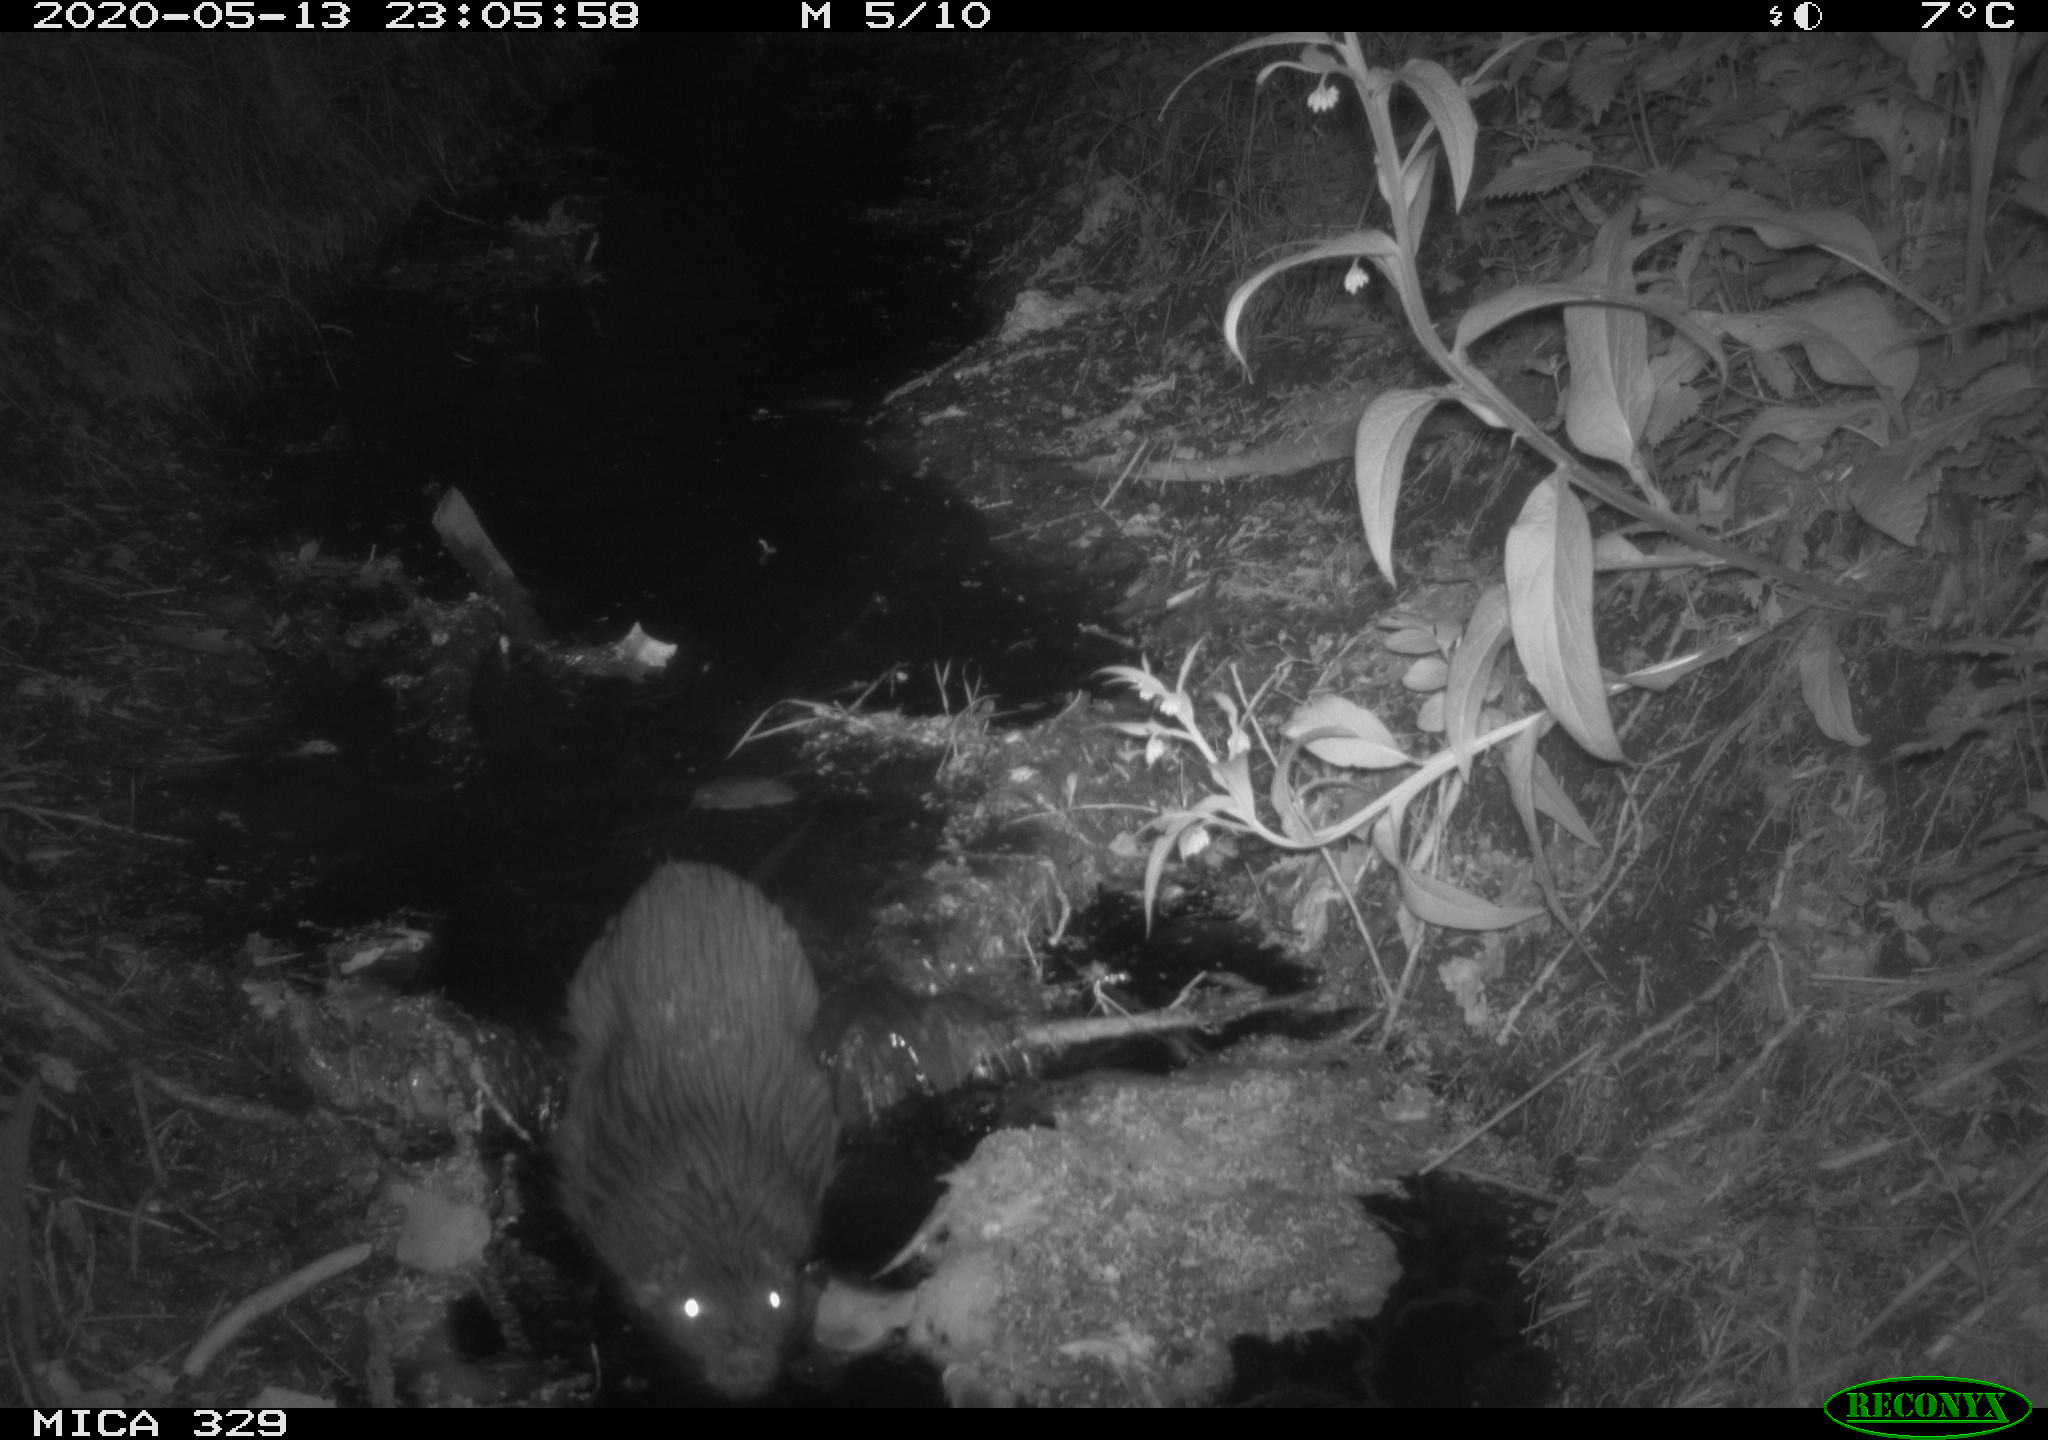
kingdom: Animalia
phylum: Chordata
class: Mammalia
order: Rodentia
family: Myocastoridae
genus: Myocastor
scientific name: Myocastor coypus
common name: Coypu
